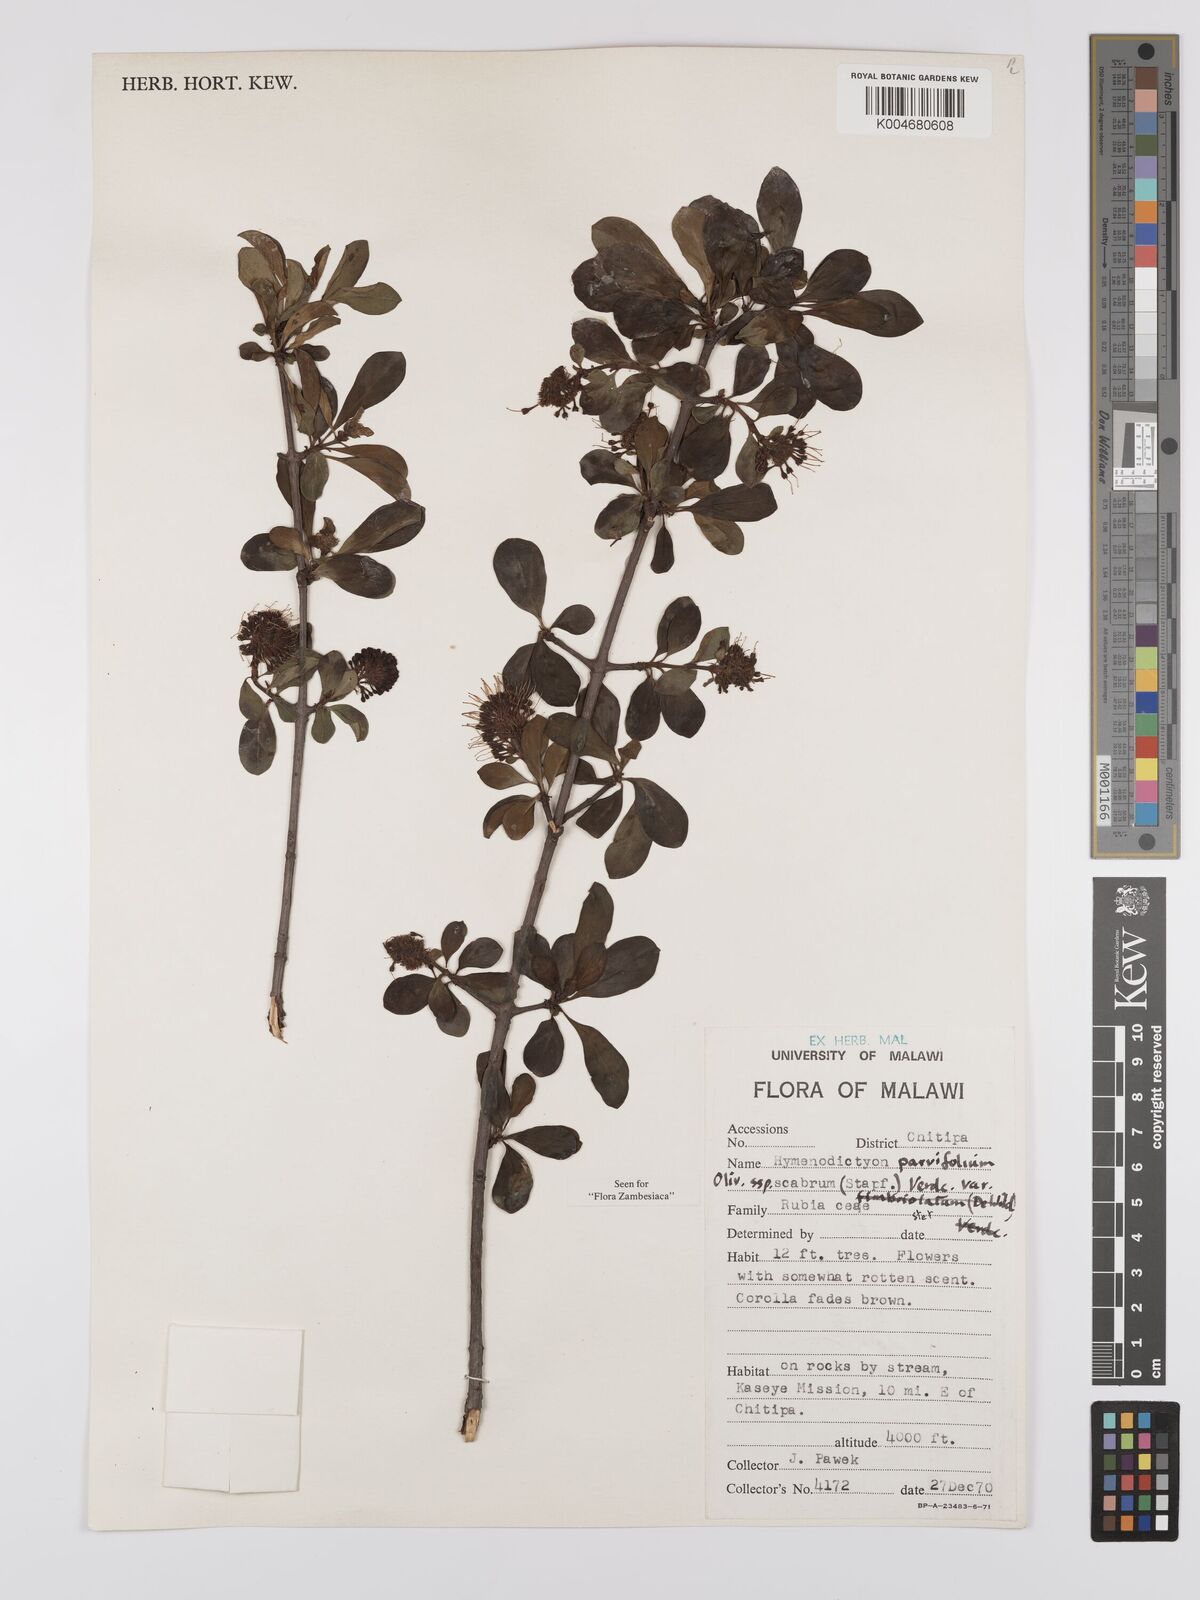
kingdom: Plantae
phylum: Tracheophyta
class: Magnoliopsida
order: Gentianales
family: Rubiaceae
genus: Hymenodictyon
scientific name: Hymenodictyon scabrum
